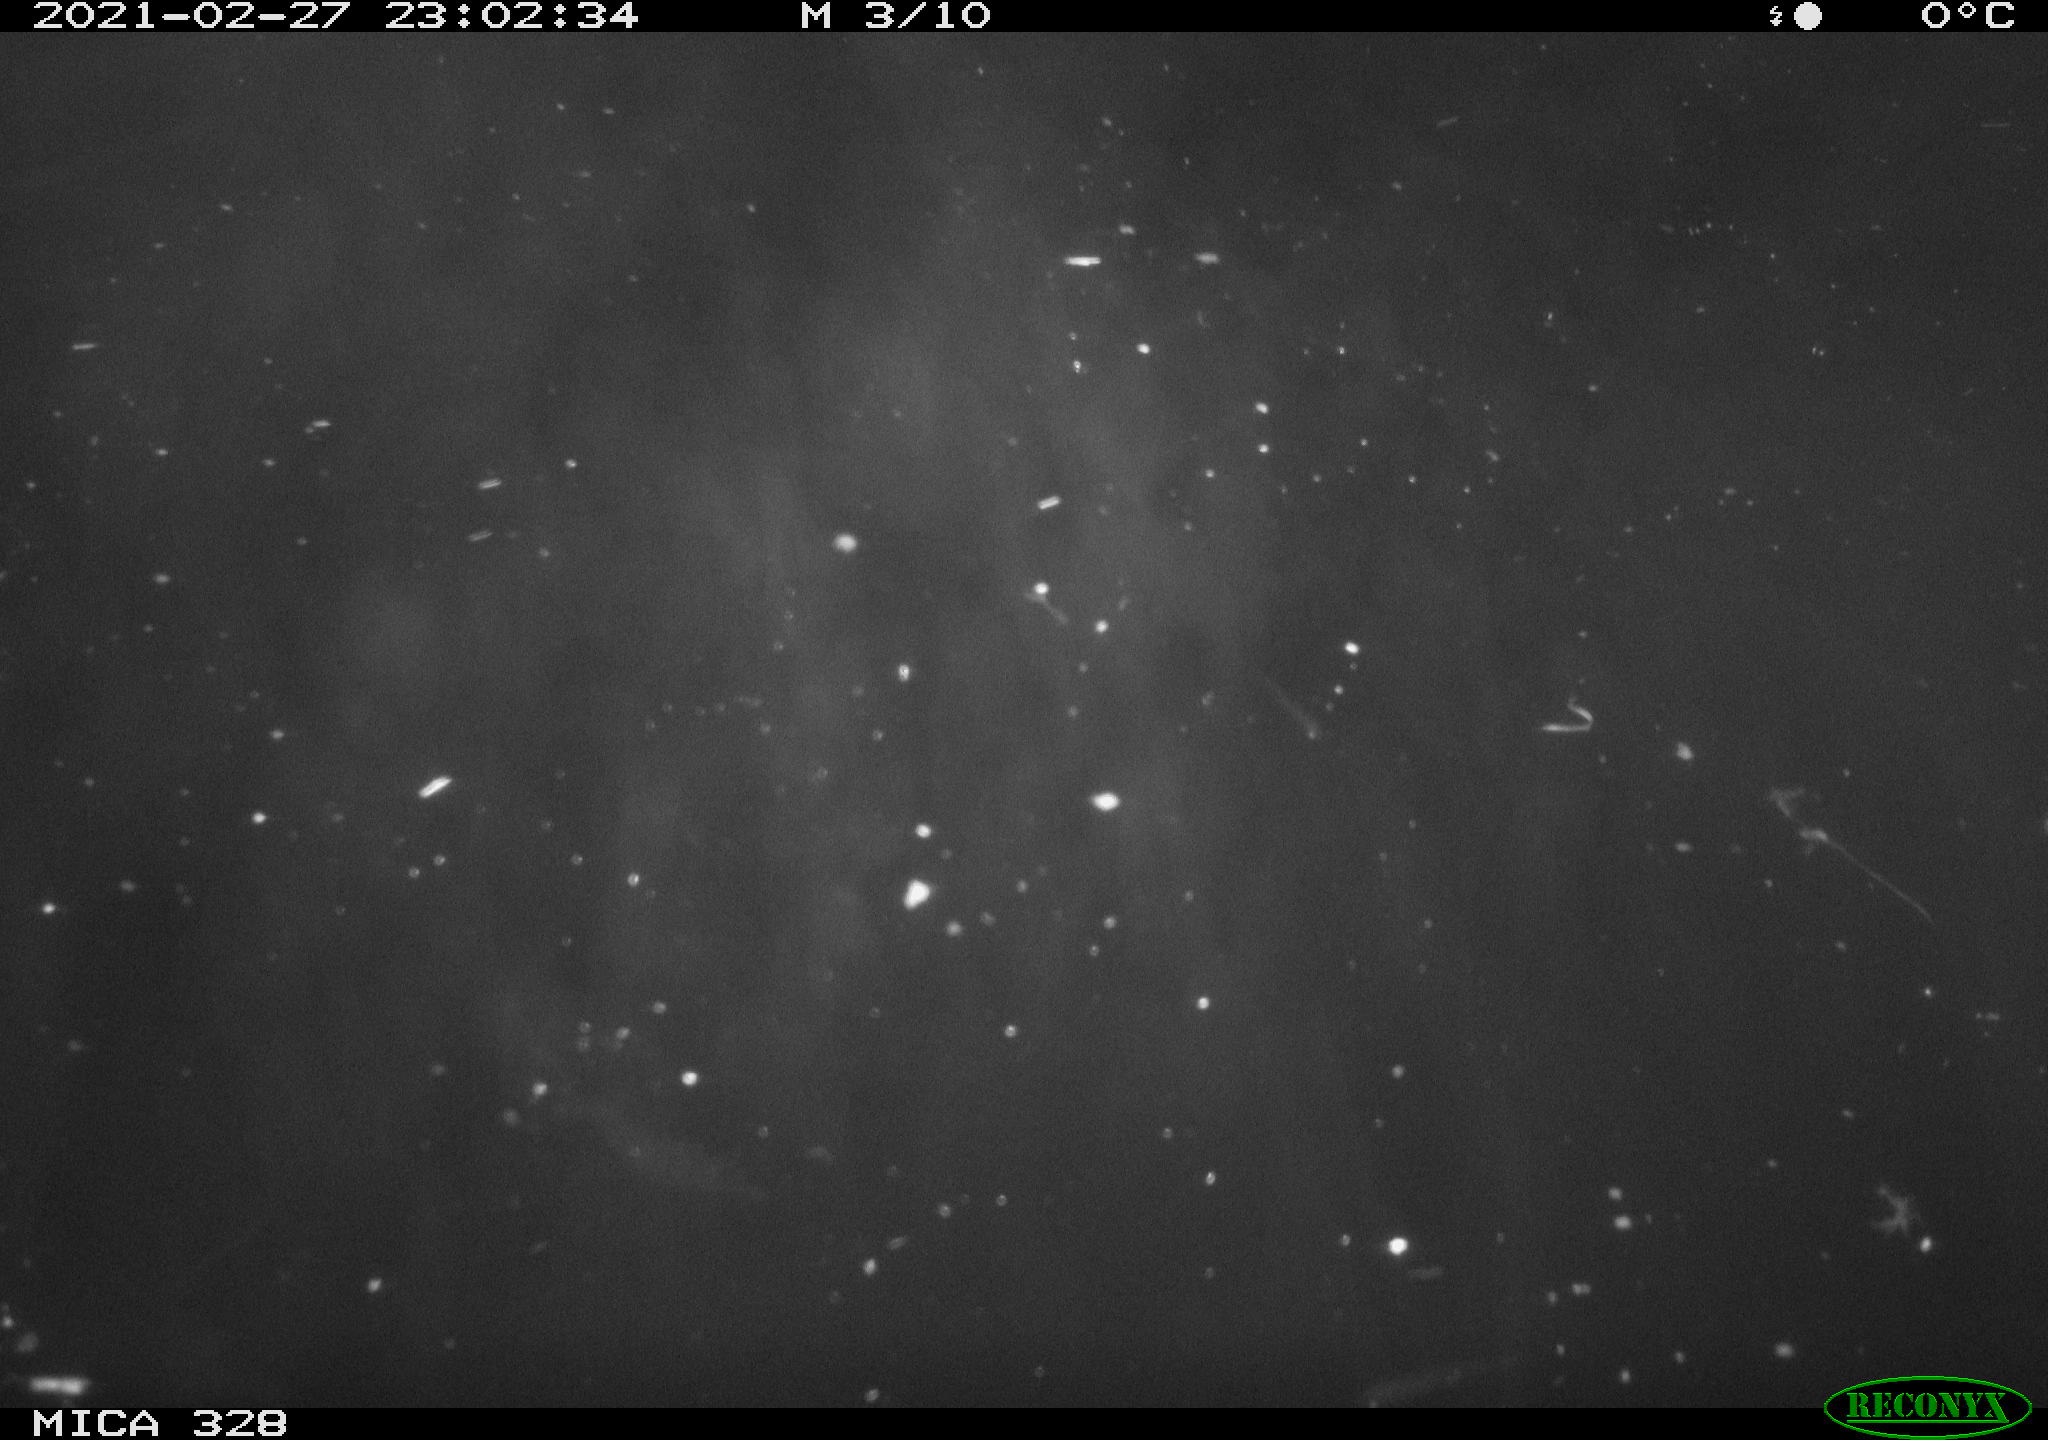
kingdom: Animalia
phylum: Chordata
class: Mammalia
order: Rodentia
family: Cricetidae
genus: Ondatra
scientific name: Ondatra zibethicus
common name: Muskrat
